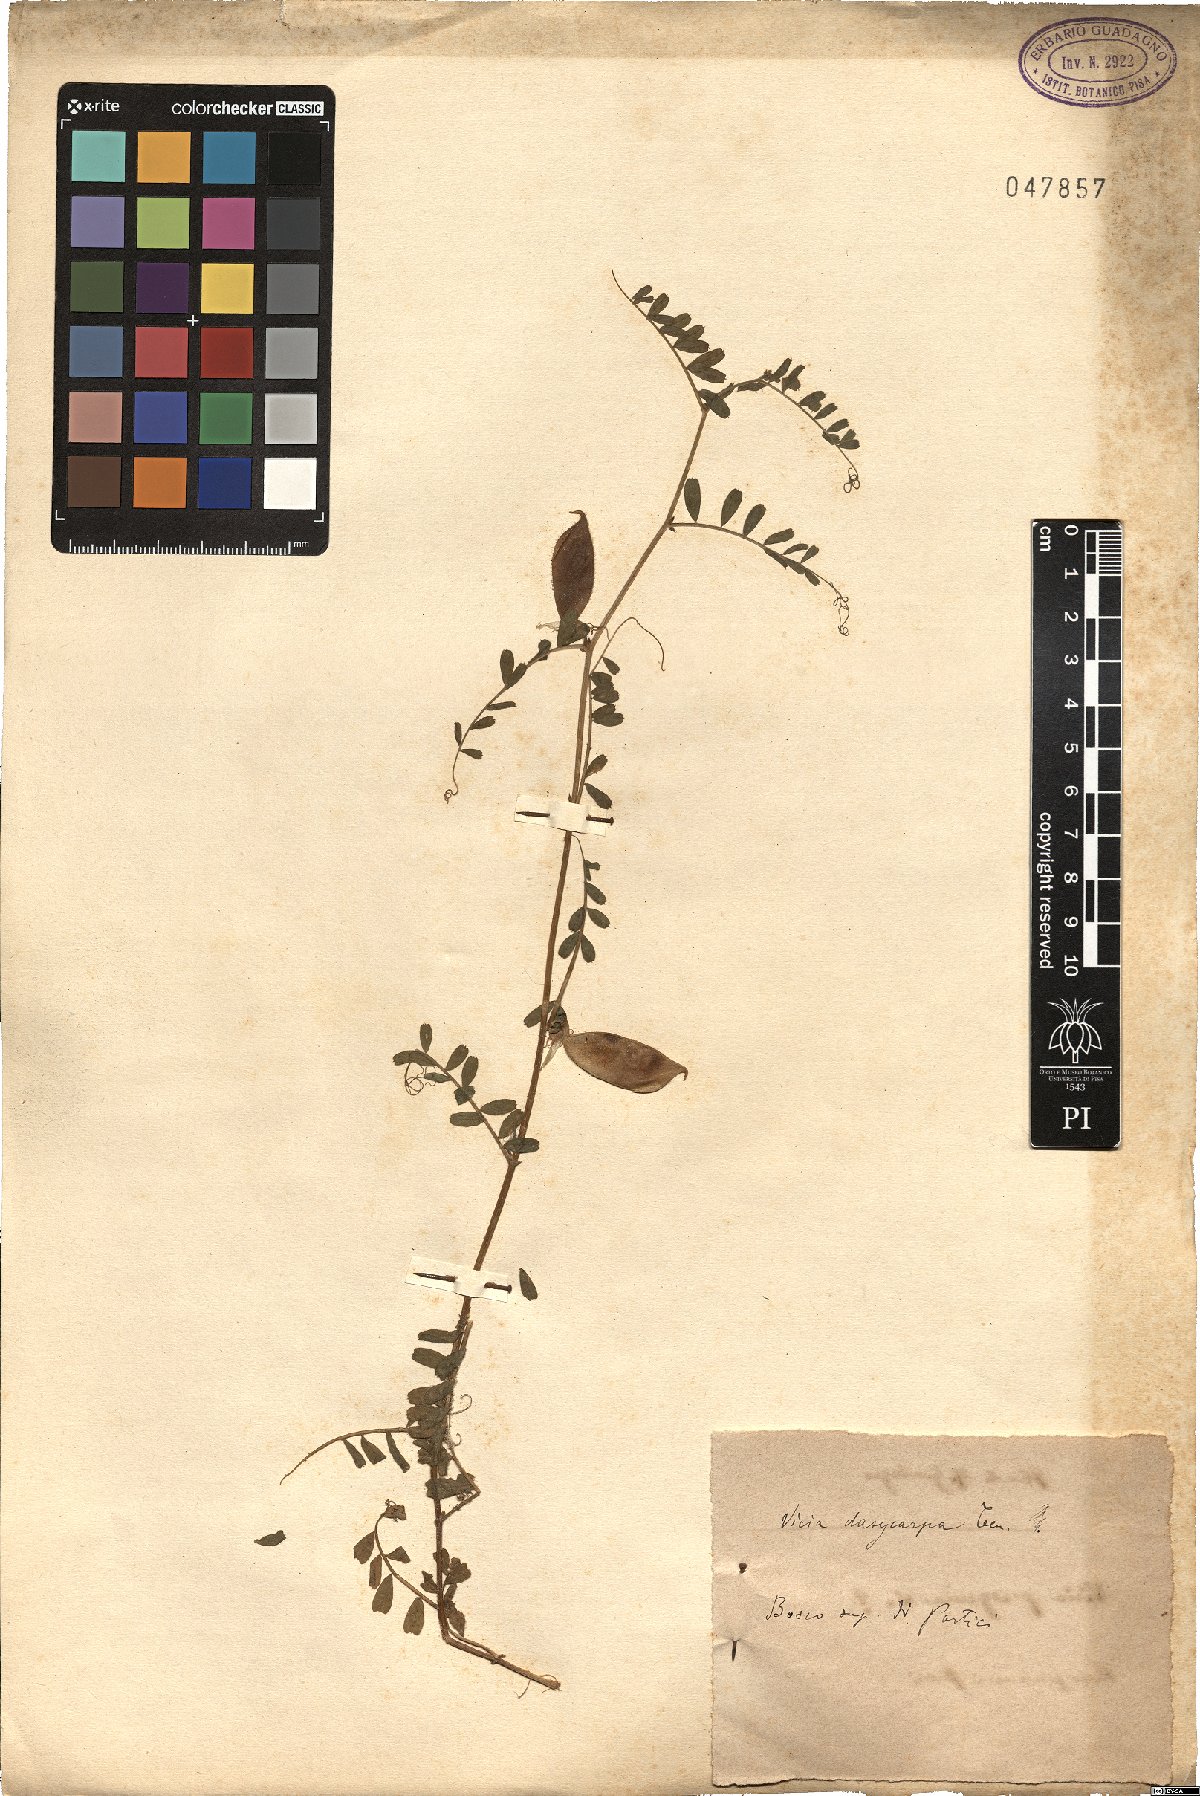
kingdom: Plantae
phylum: Tracheophyta
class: Magnoliopsida
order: Fabales
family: Fabaceae
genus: Vicia
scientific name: Vicia villosa
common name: Fodder vetch
